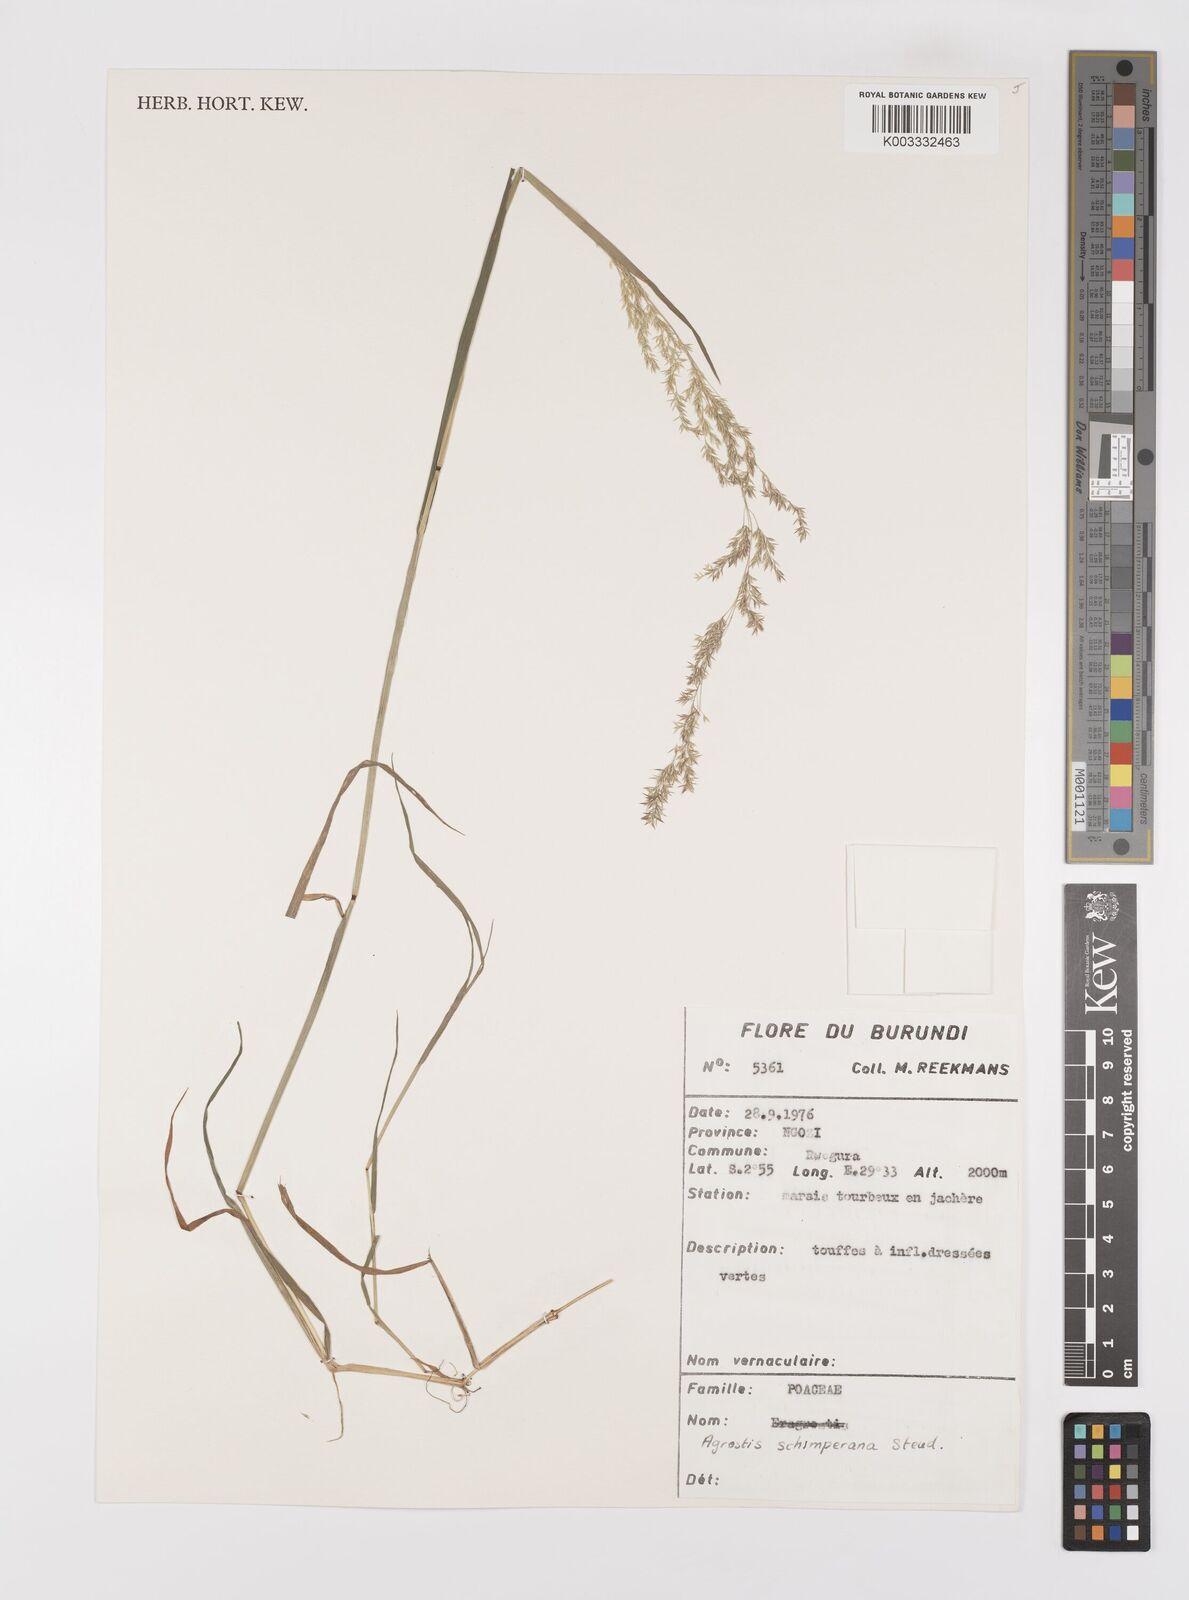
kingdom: Plantae
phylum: Tracheophyta
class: Liliopsida
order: Poales
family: Poaceae
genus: Polypogon
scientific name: Polypogon schimperianus
